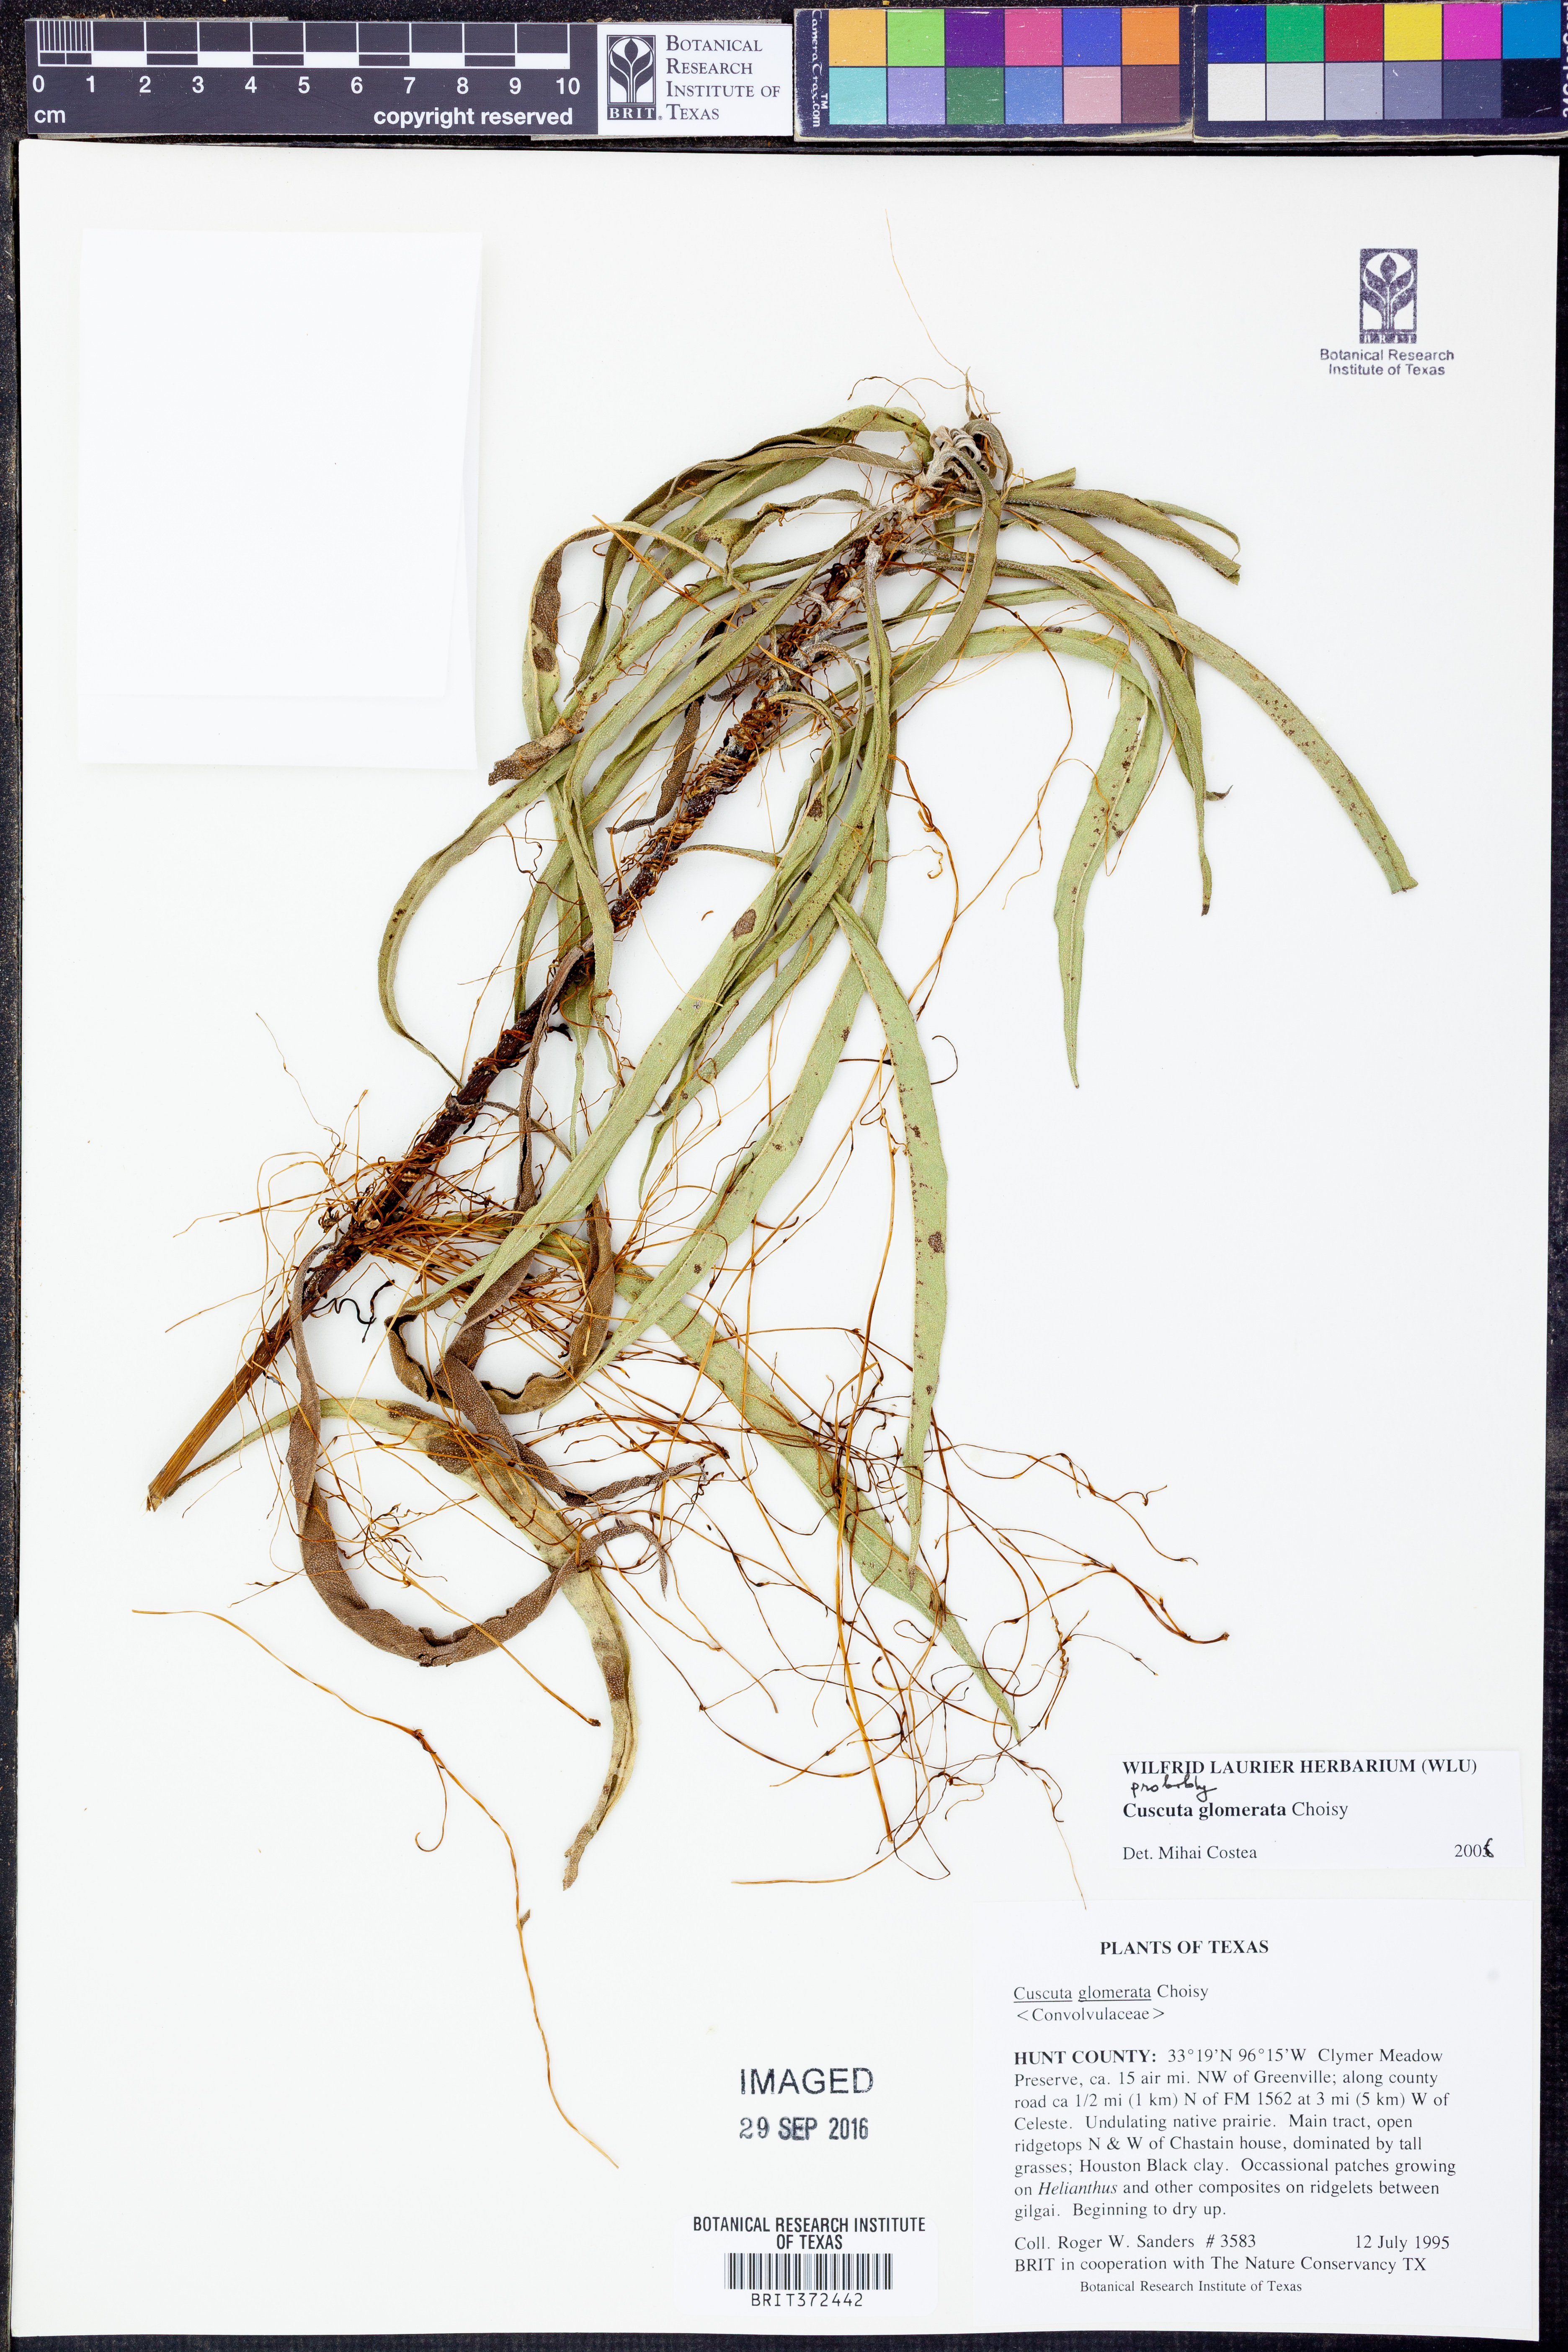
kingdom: Plantae
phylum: Tracheophyta
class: Magnoliopsida
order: Solanales
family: Convolvulaceae
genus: Cuscuta
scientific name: Cuscuta glomerata
